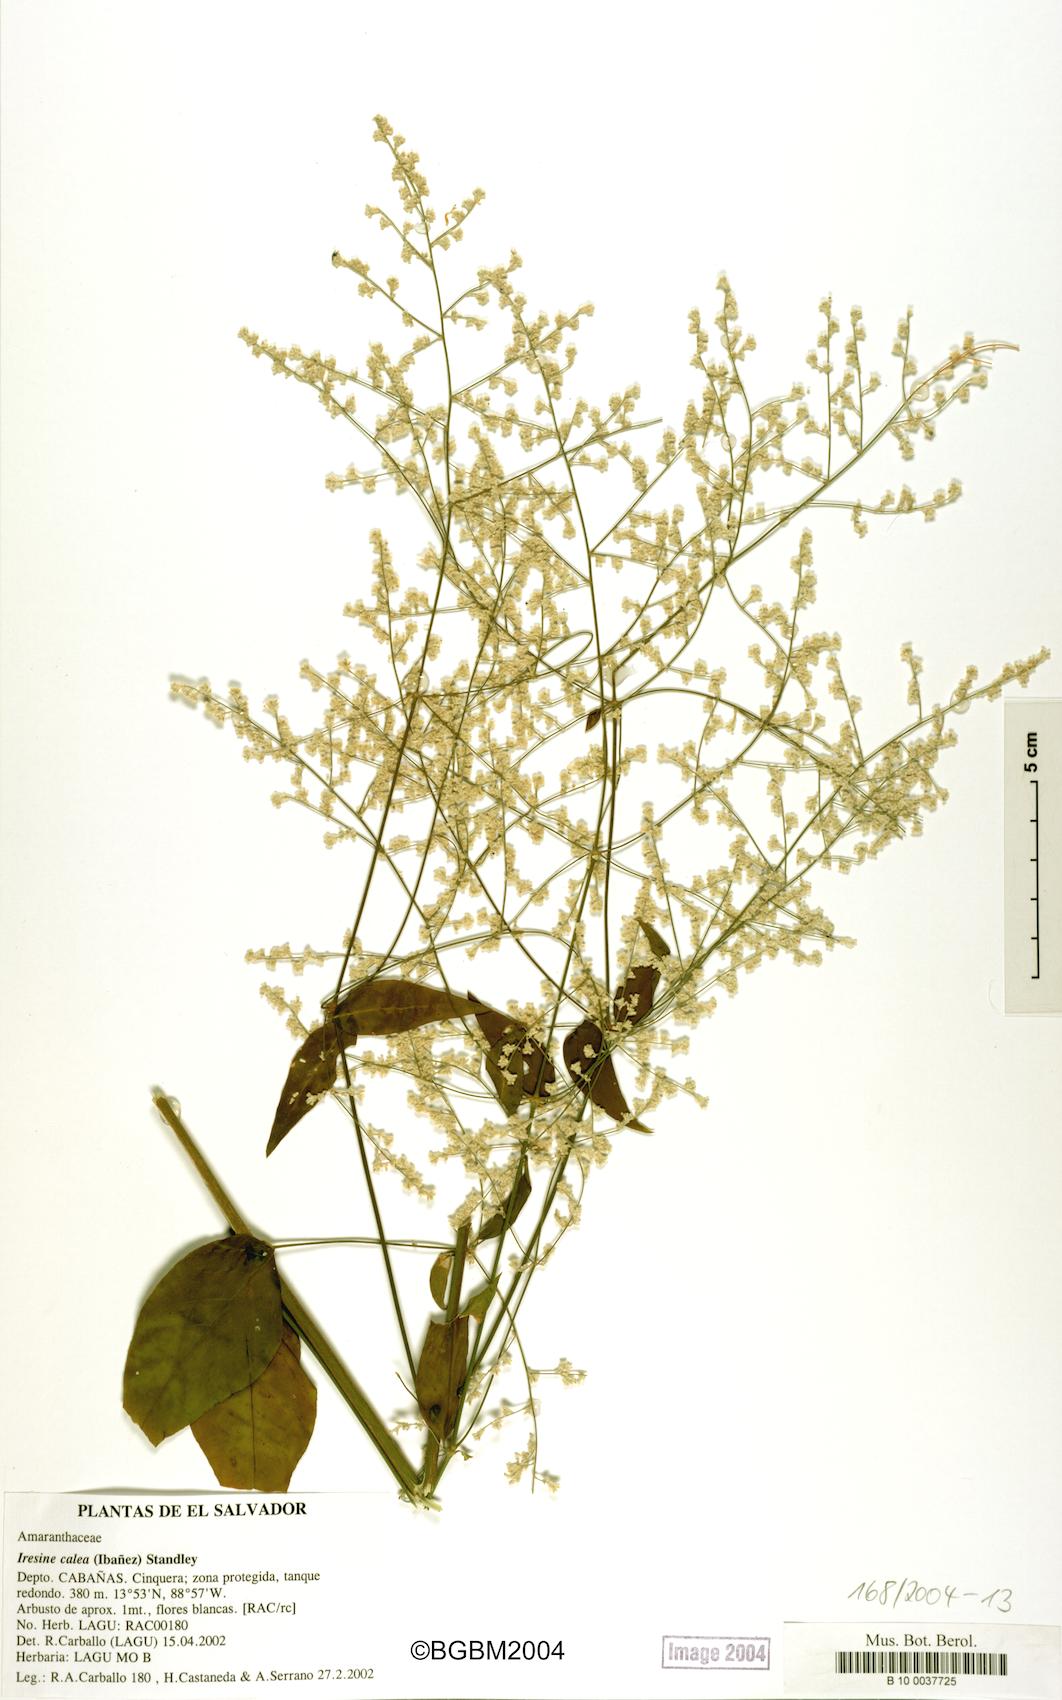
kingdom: Plantae
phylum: Tracheophyta
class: Magnoliopsida
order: Caryophyllales
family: Amaranthaceae
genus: Iresine
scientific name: Iresine latifolia
